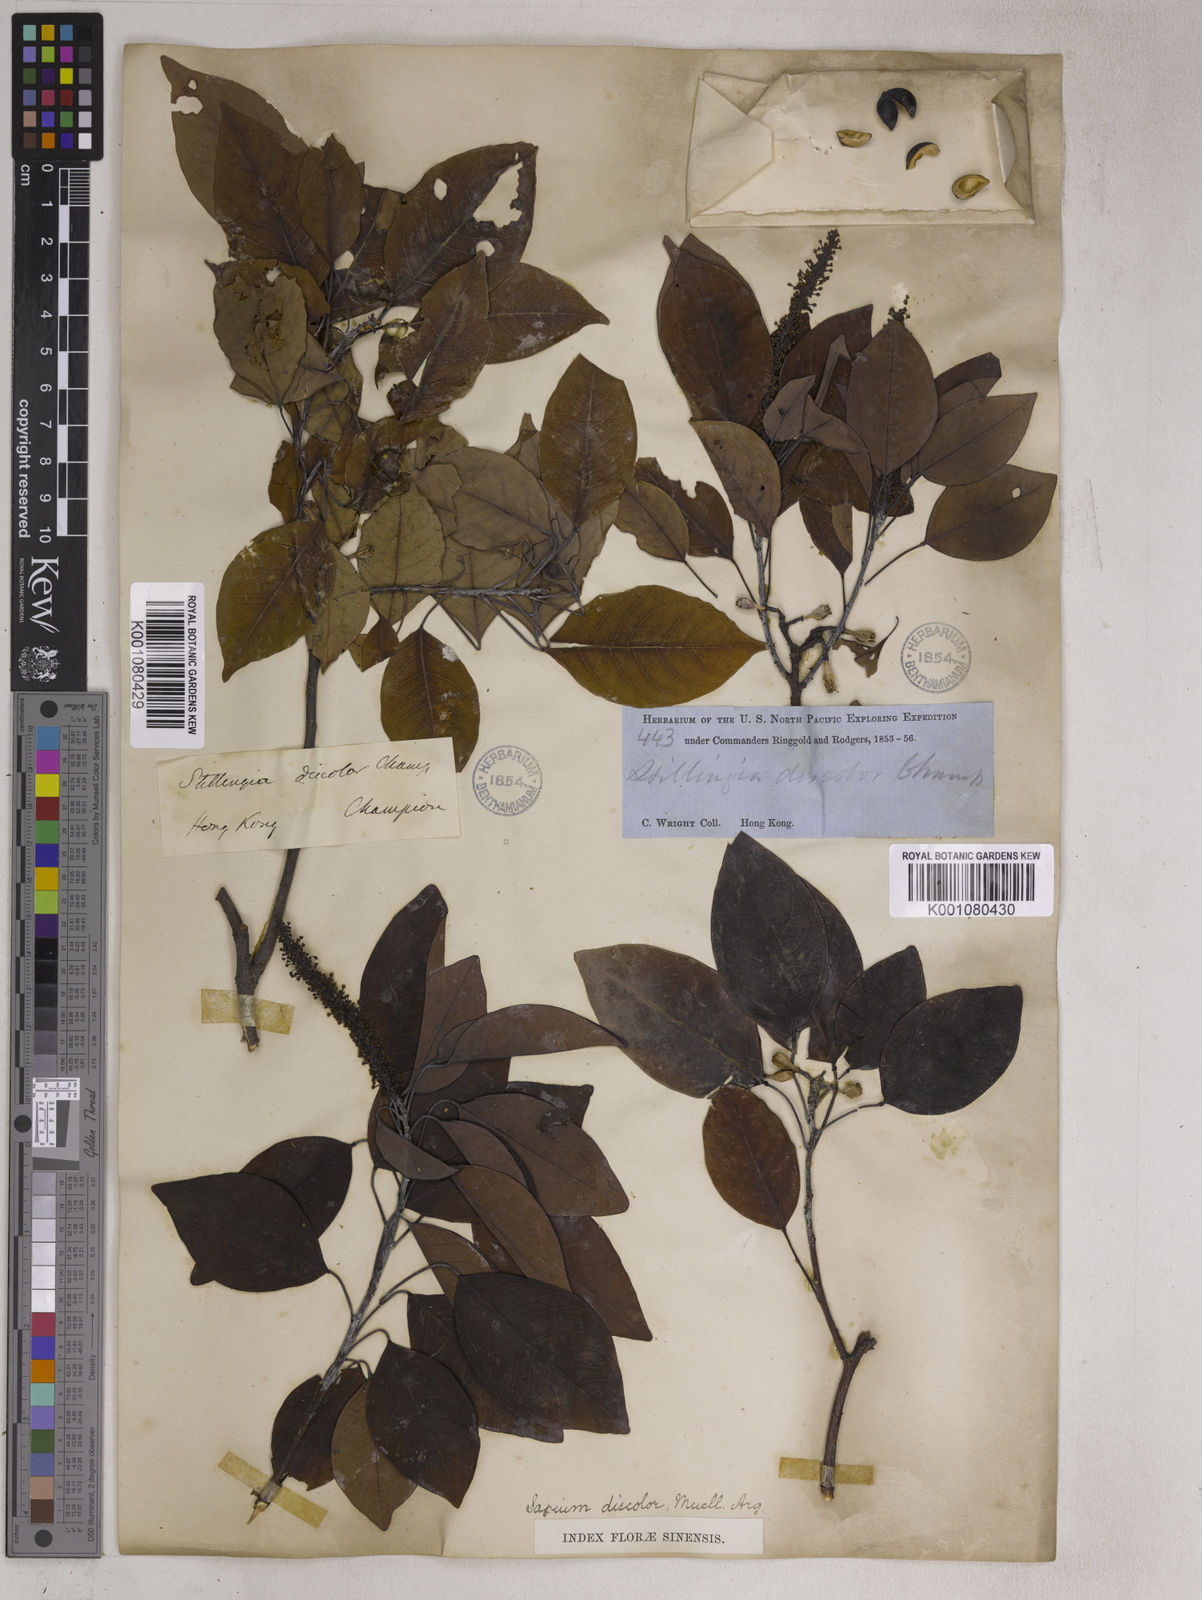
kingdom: Plantae
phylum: Tracheophyta
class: Magnoliopsida
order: Malpighiales
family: Euphorbiaceae
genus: Triadica
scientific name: Triadica cochinchinensis
